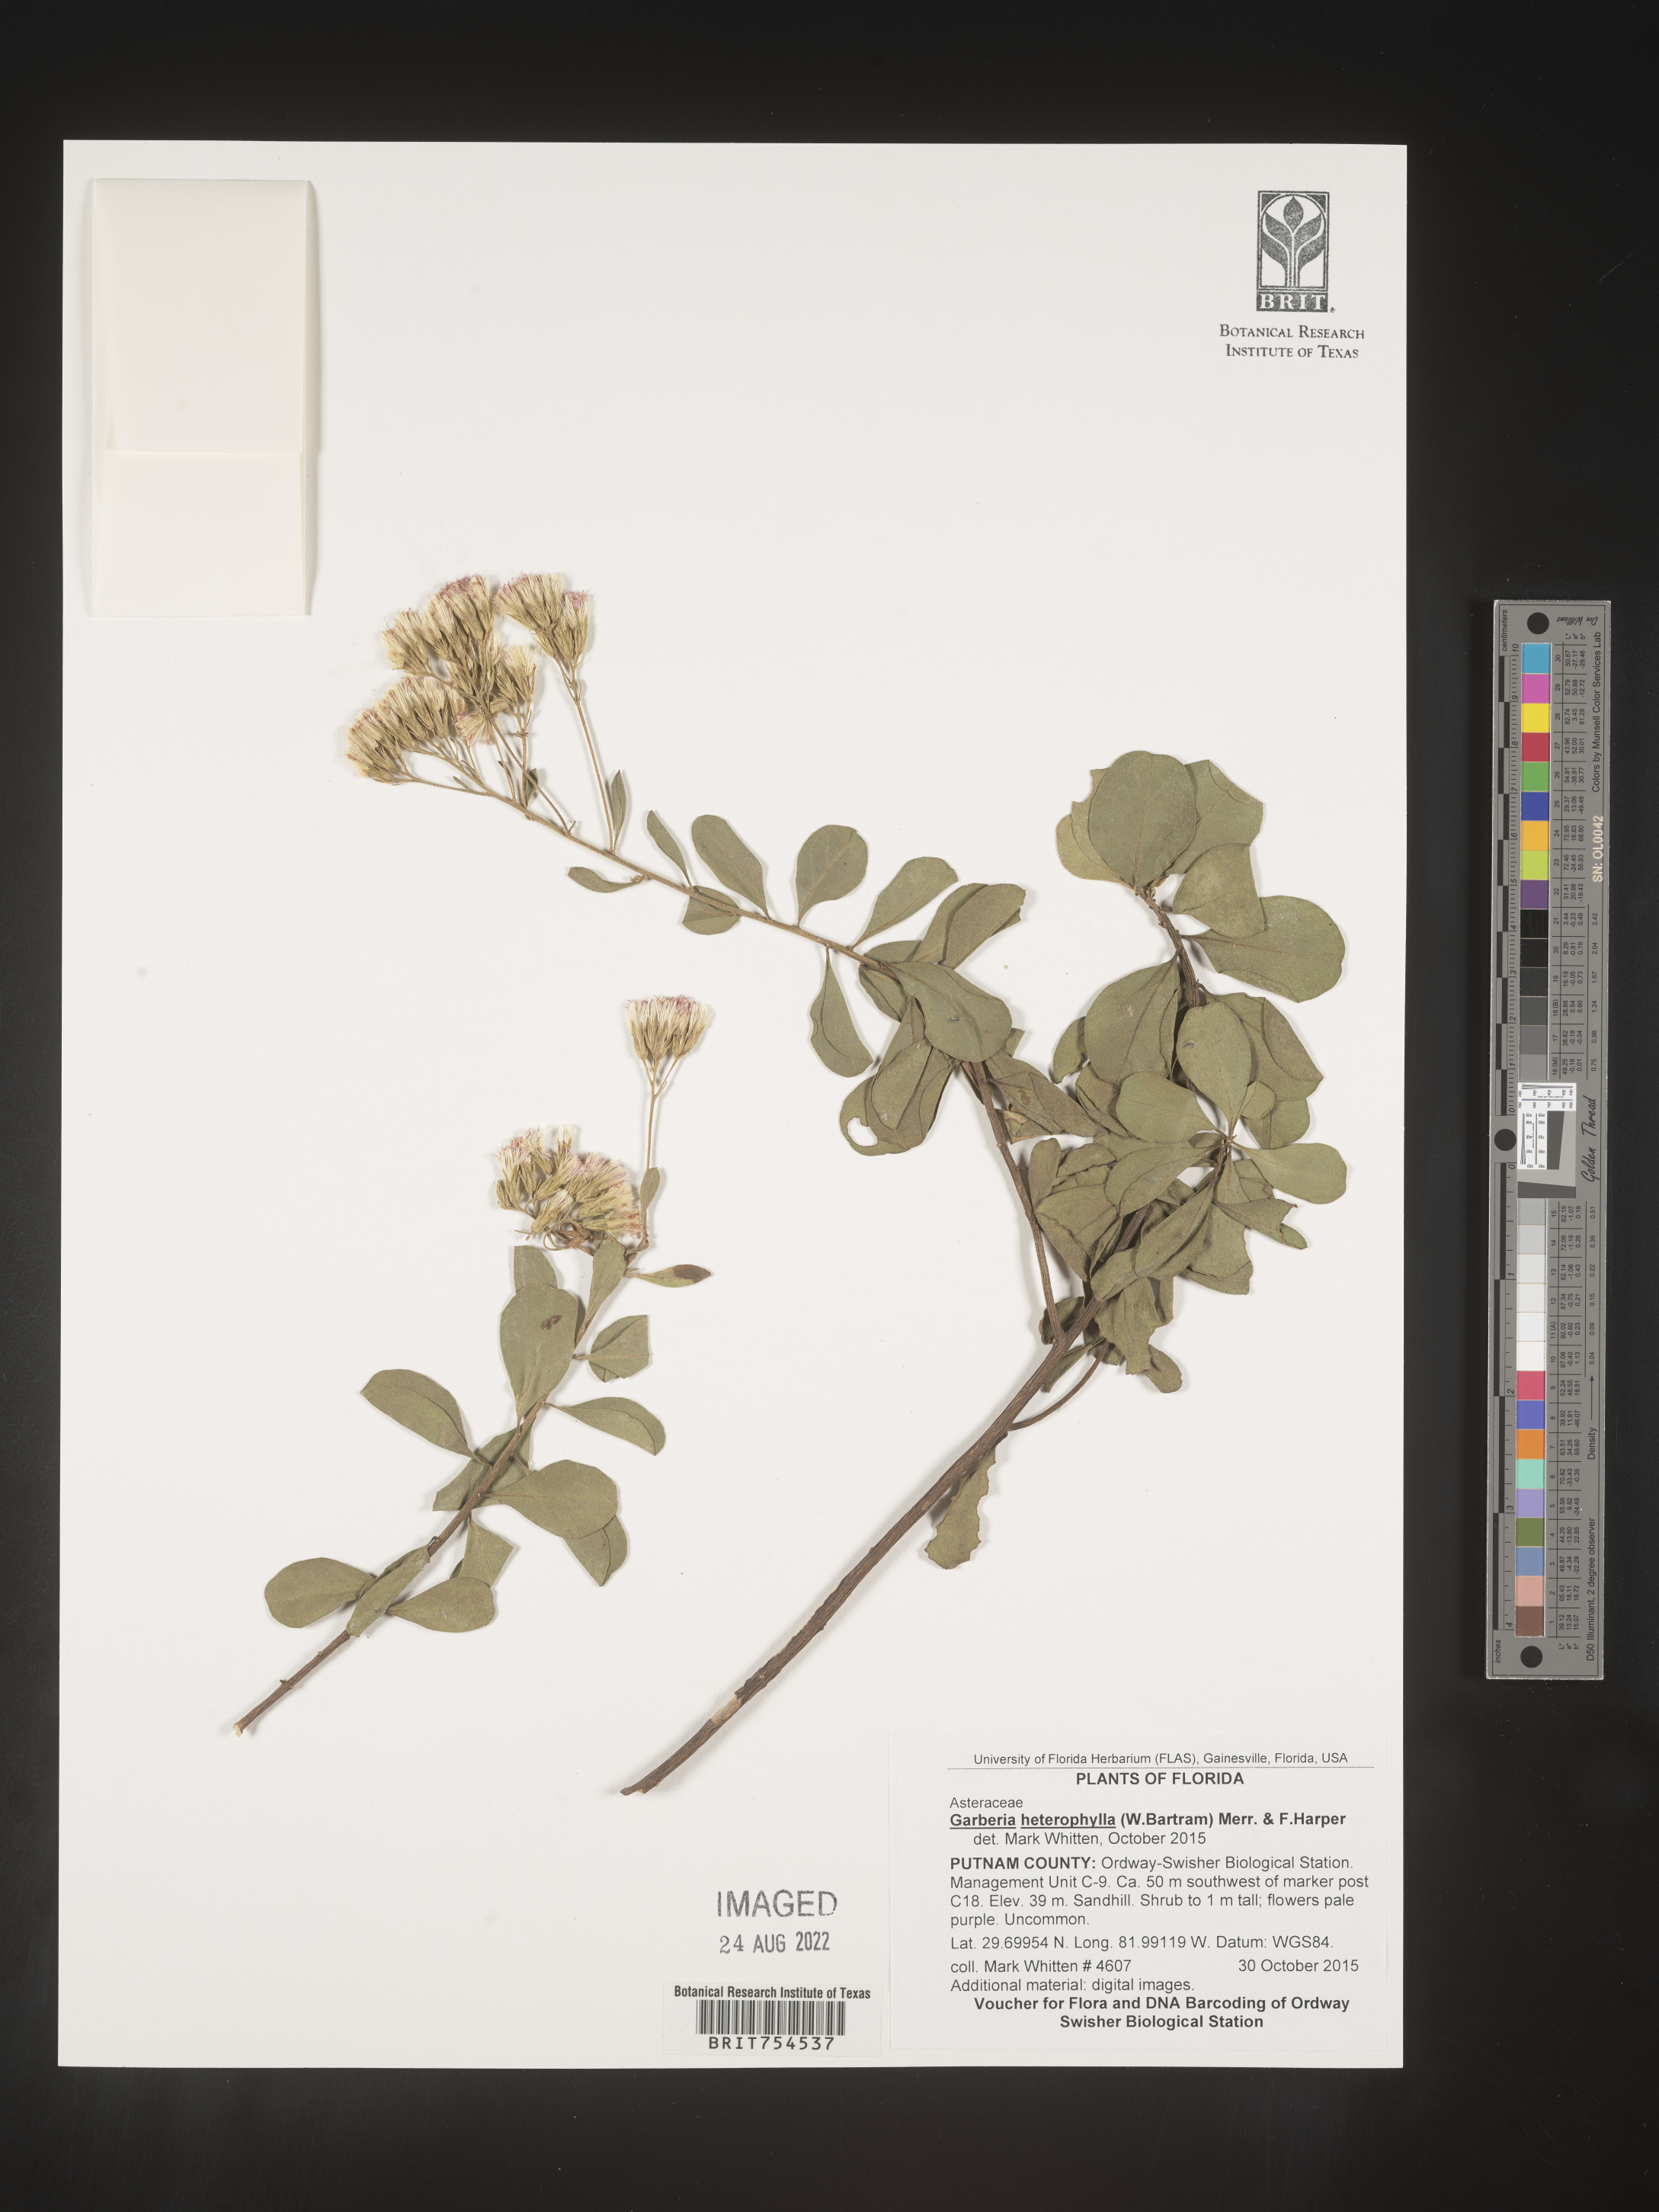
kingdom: Plantae
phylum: Tracheophyta
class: Magnoliopsida
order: Asterales
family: Asteraceae
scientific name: Asteraceae
